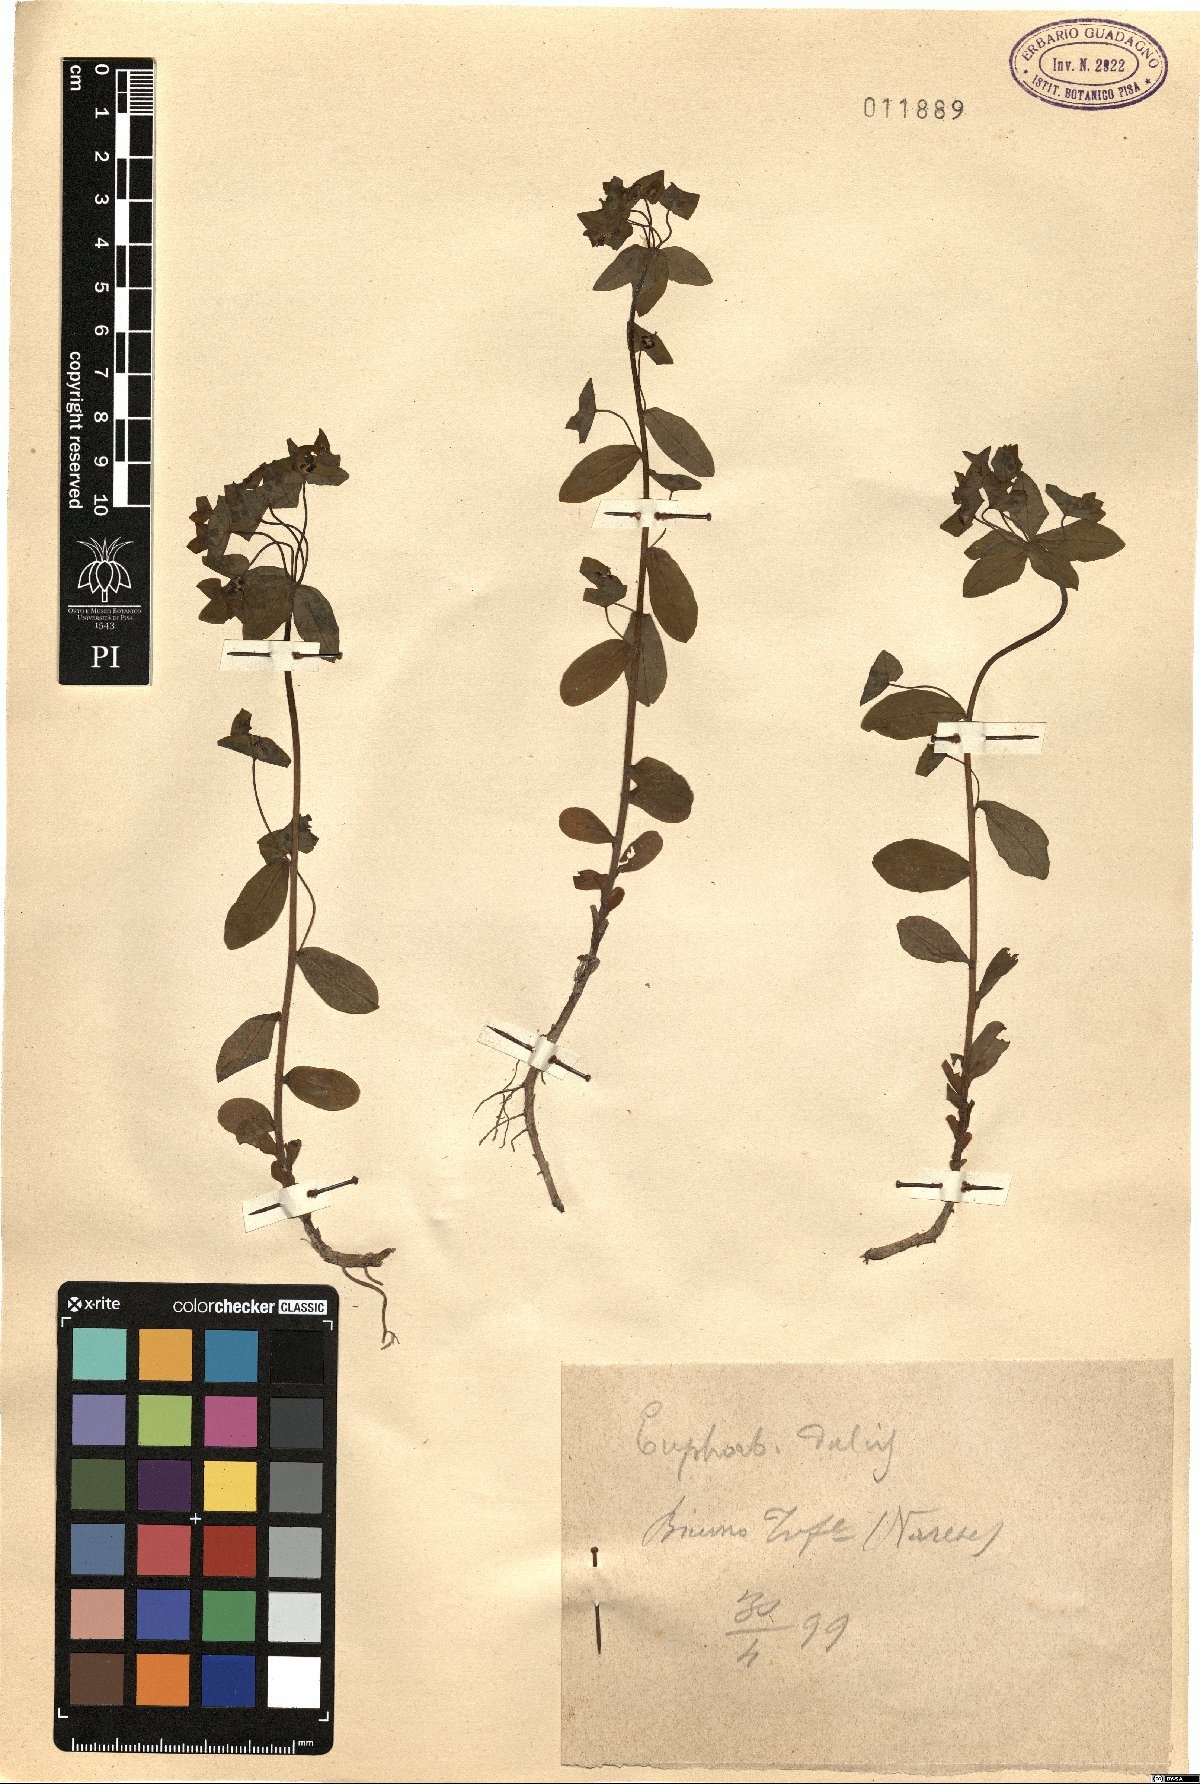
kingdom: Plantae
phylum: Tracheophyta
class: Magnoliopsida
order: Malpighiales
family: Euphorbiaceae
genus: Euphorbia
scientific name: Euphorbia dulcis
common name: Sweet spurge
